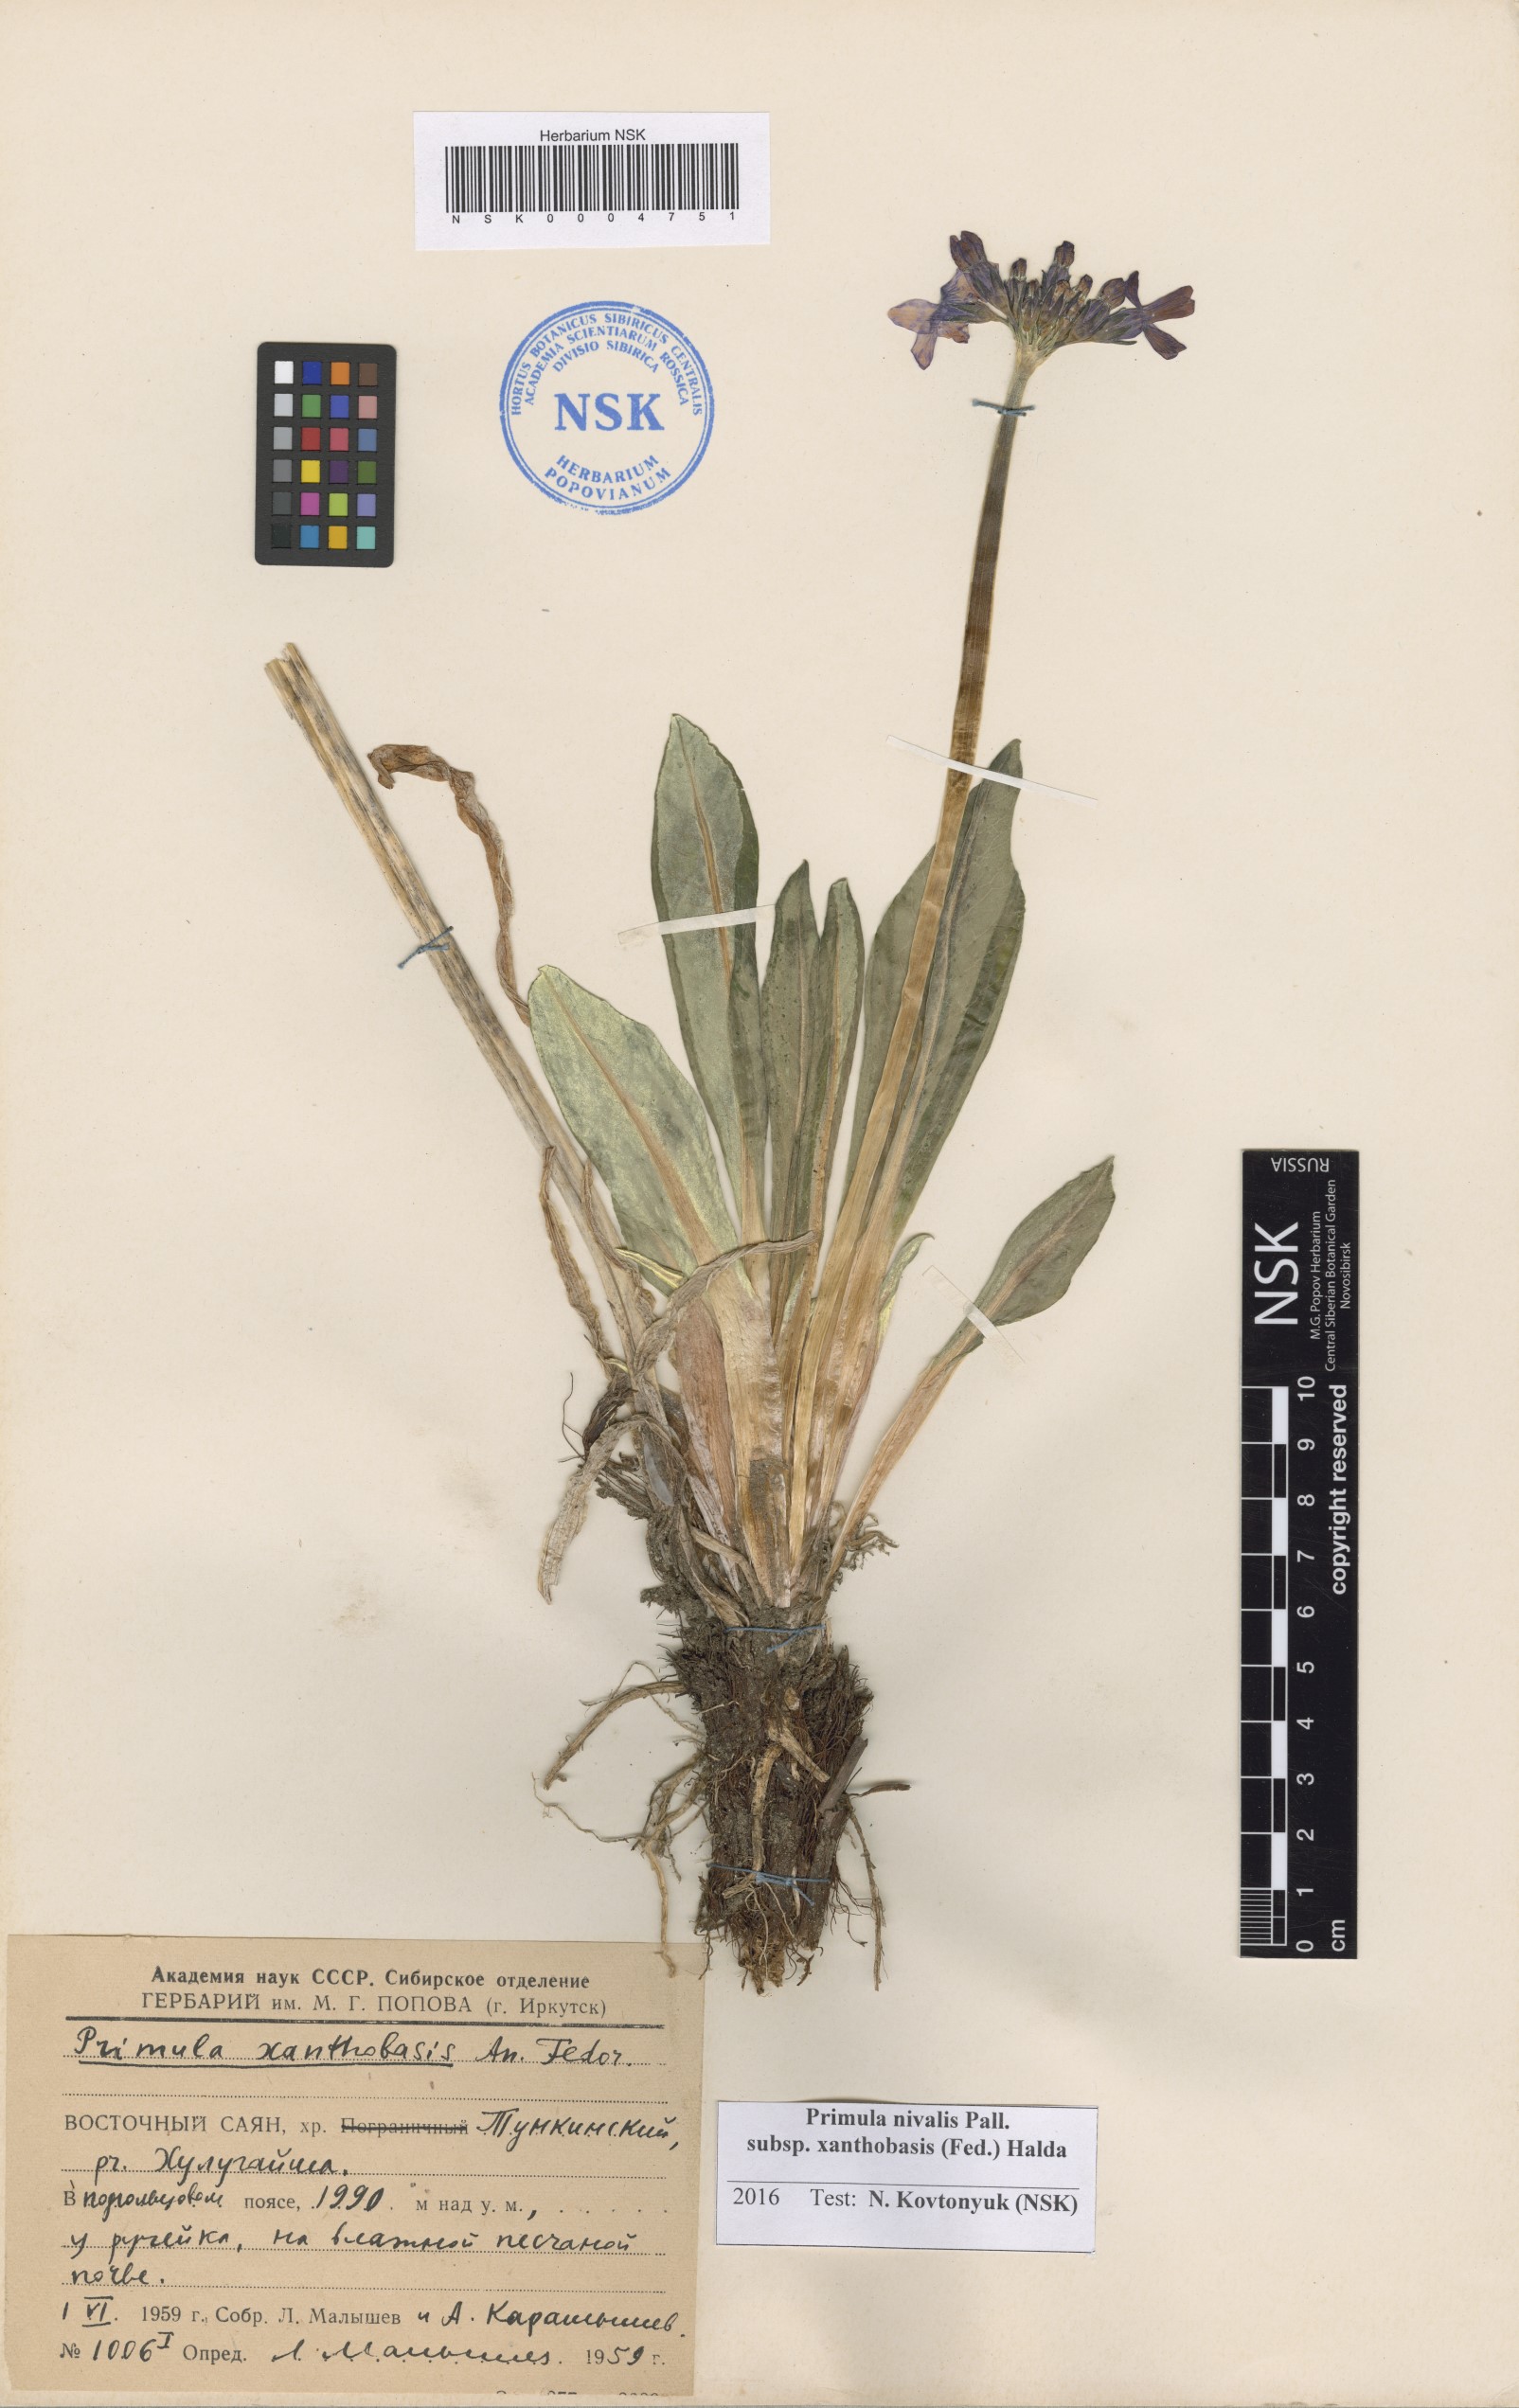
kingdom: Plantae
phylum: Tracheophyta
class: Magnoliopsida
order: Ericales
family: Primulaceae
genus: Primula
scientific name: Primula nivalis
